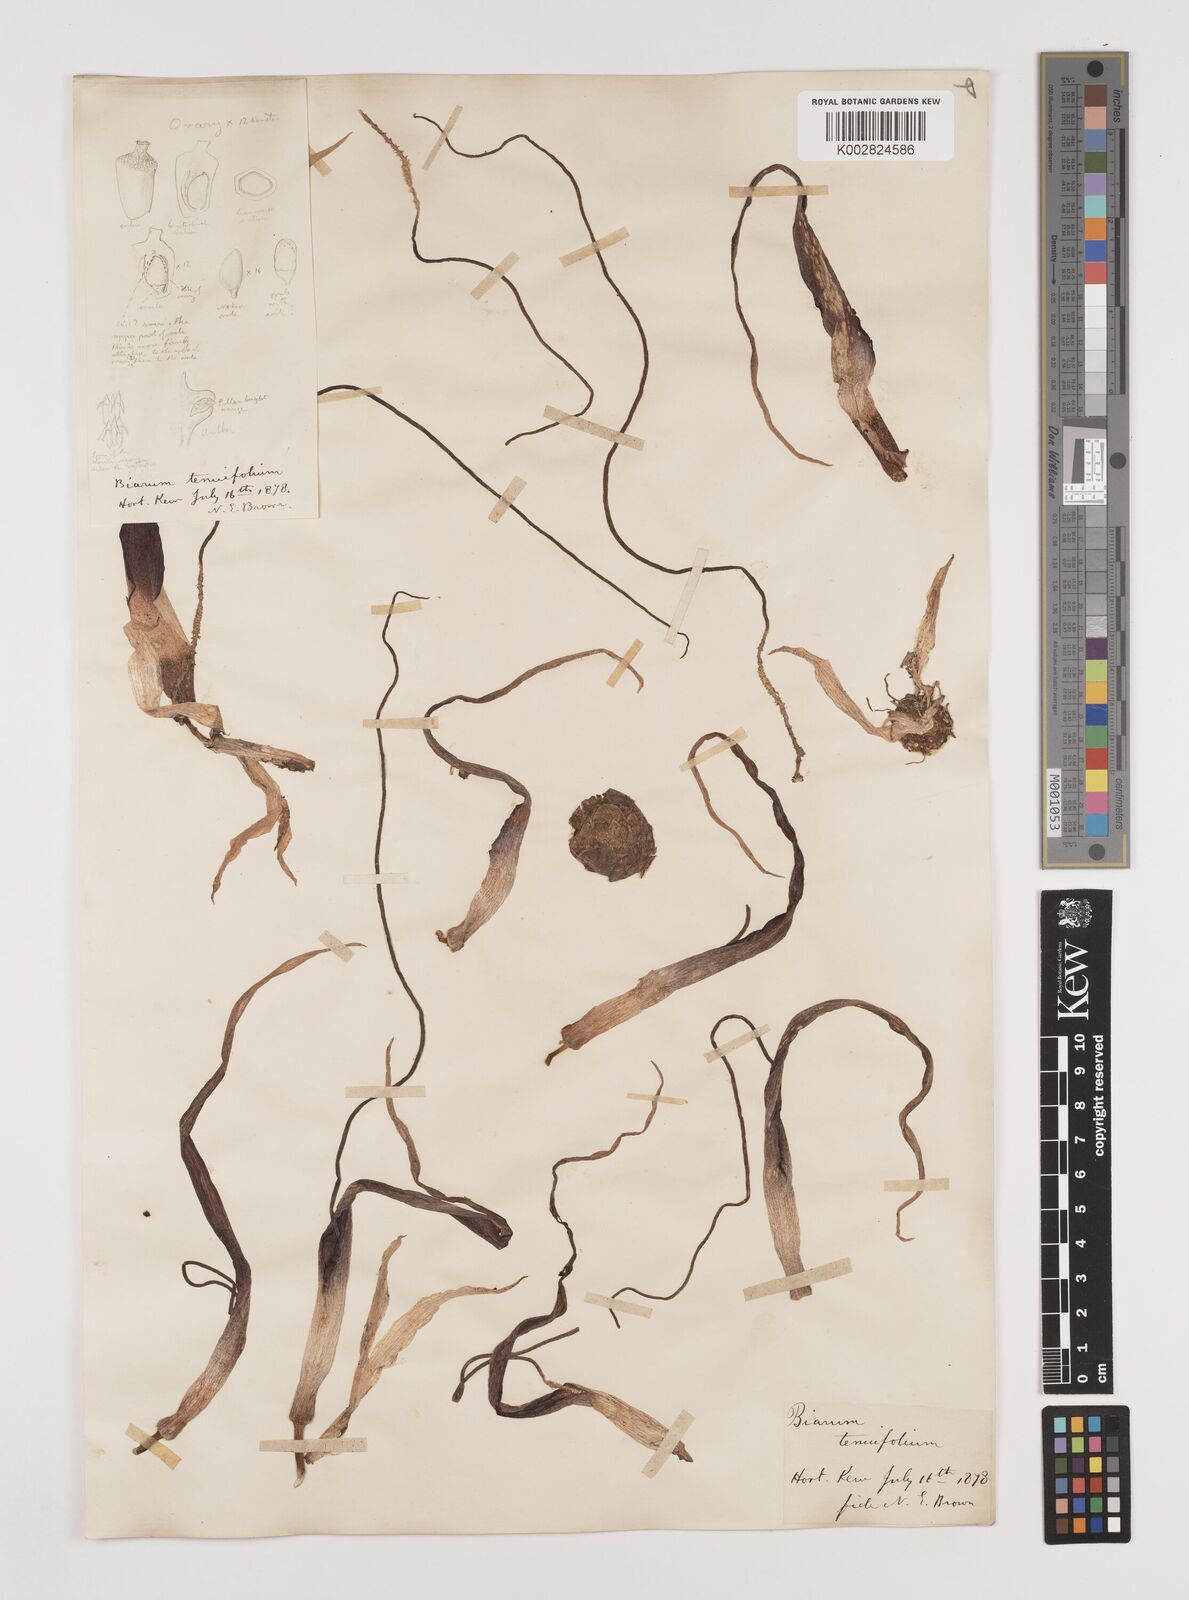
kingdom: Plantae
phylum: Tracheophyta
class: Liliopsida
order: Alismatales
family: Araceae
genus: Biarum
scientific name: Biarum tenuifolium
